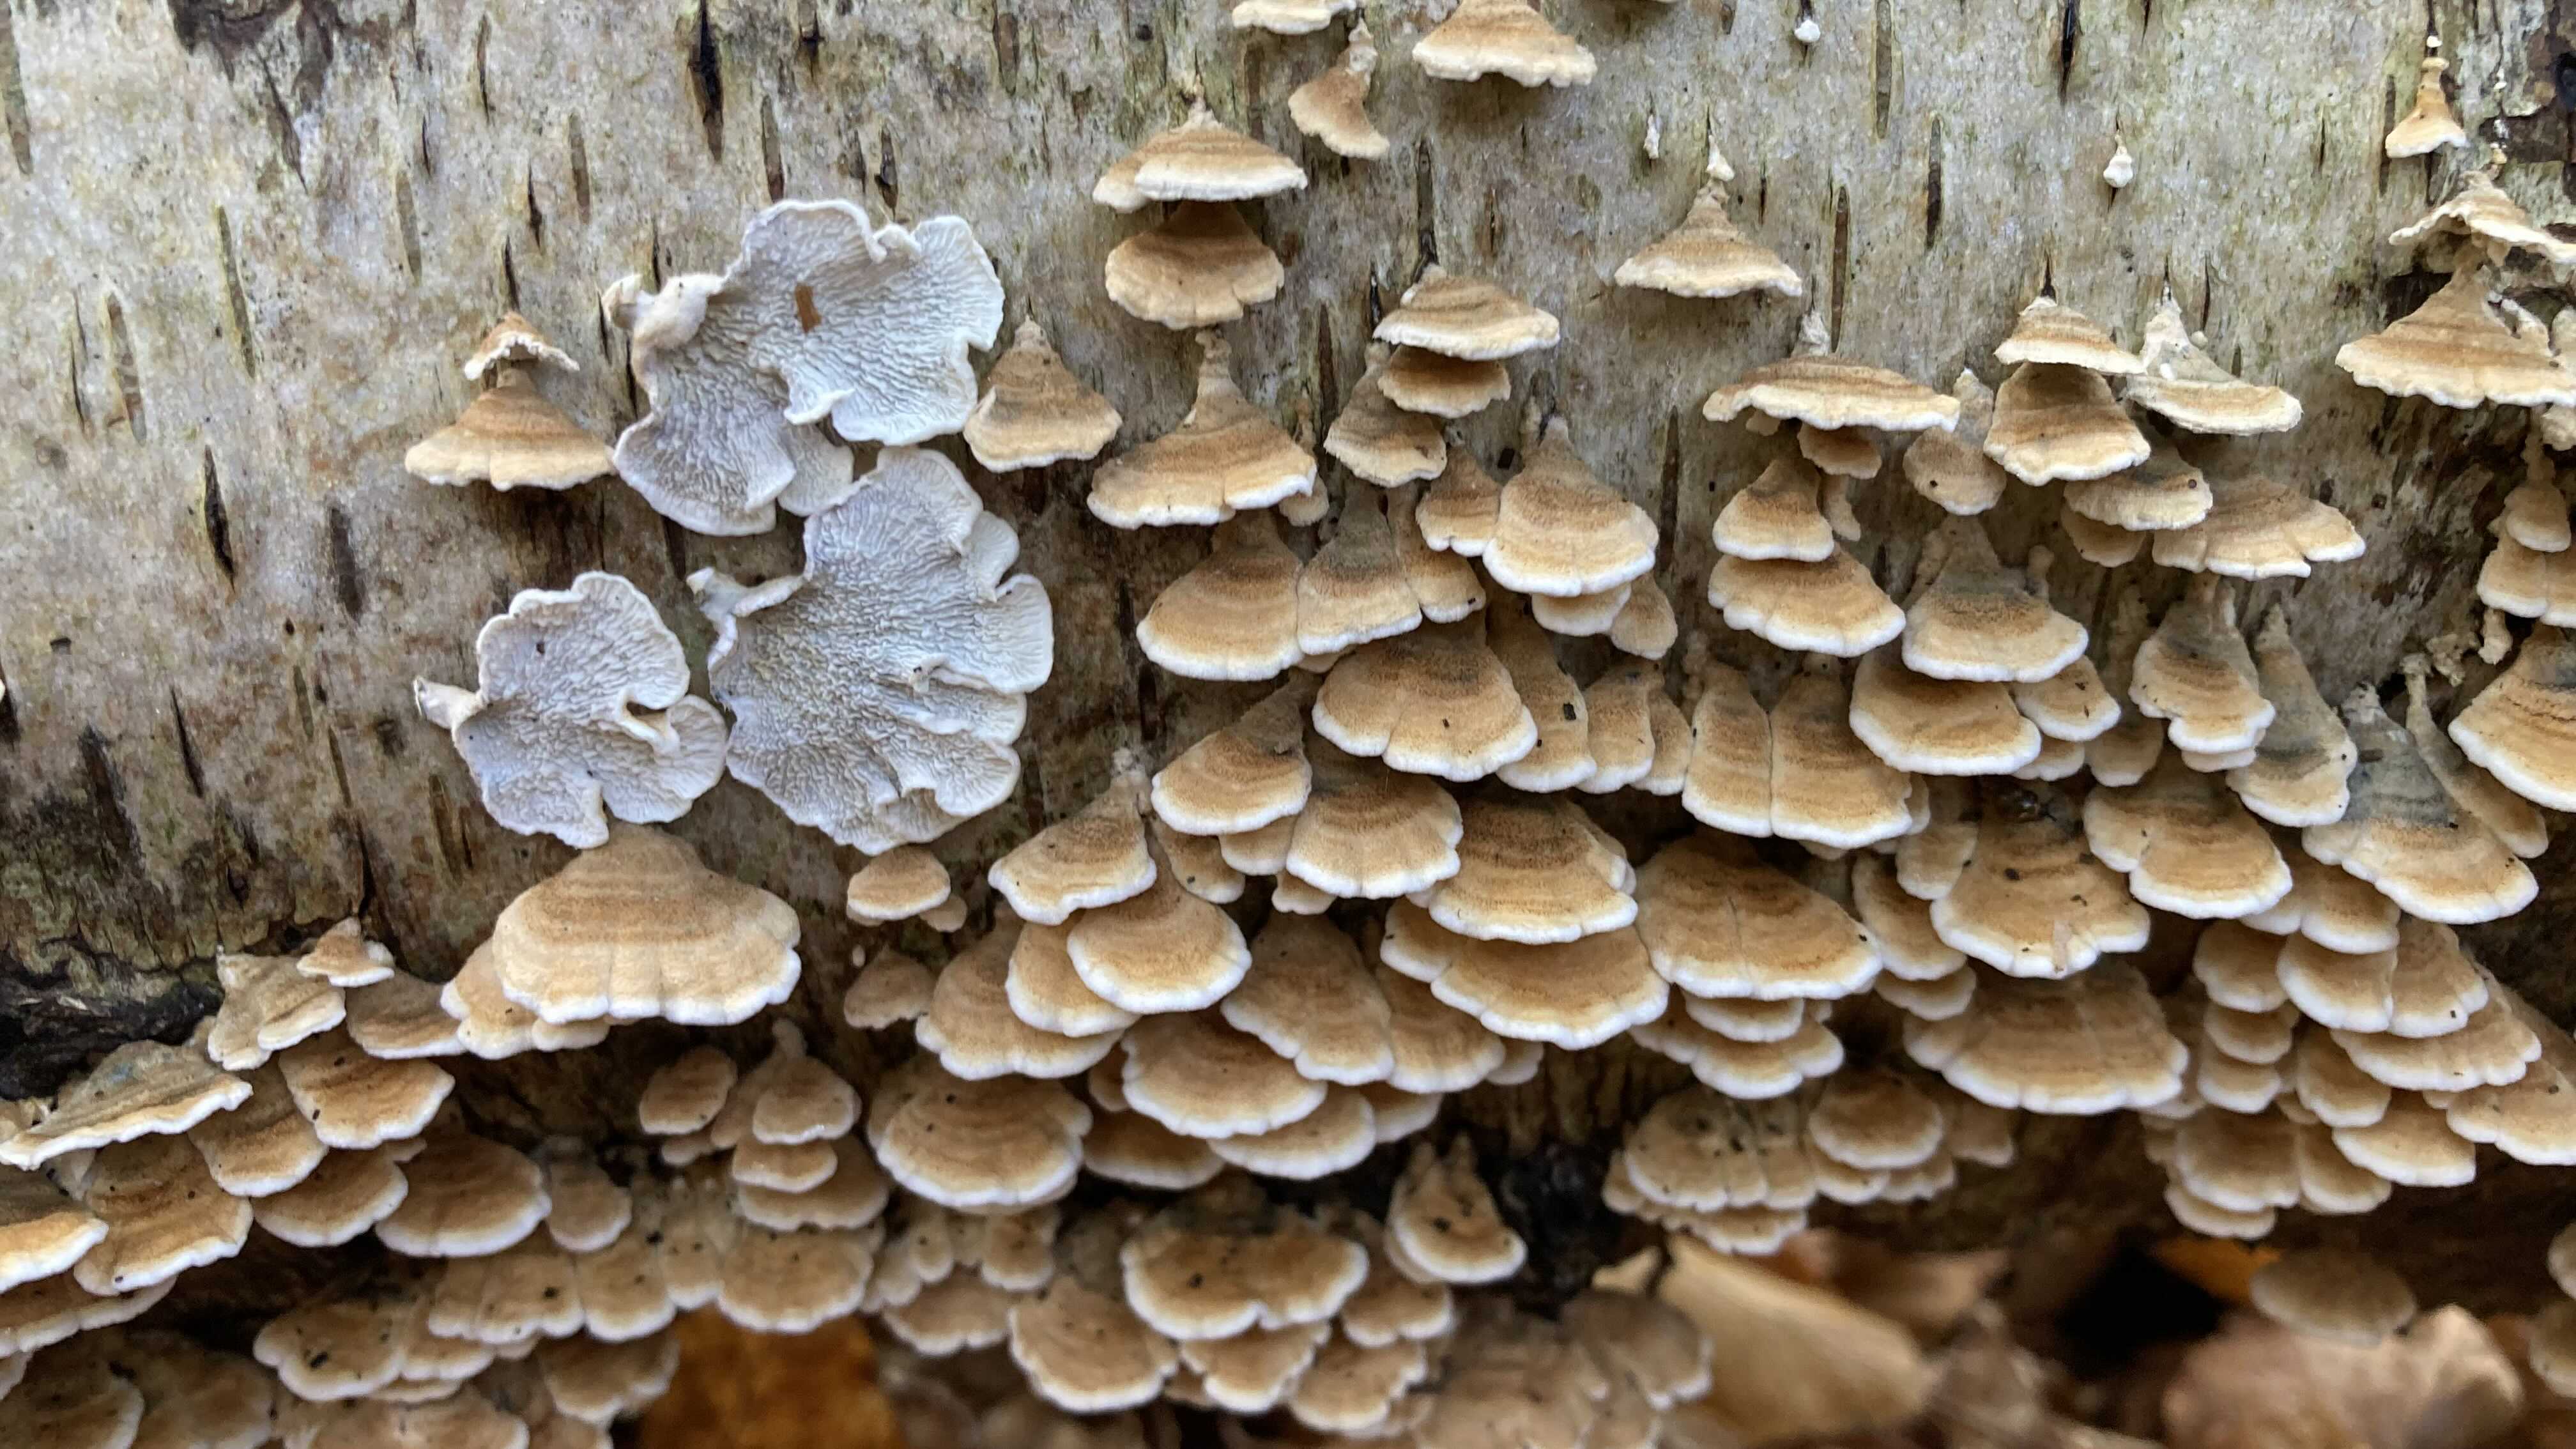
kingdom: Fungi
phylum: Basidiomycota
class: Agaricomycetes
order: Amylocorticiales
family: Amylocorticiaceae
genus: Plicaturopsis
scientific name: Plicaturopsis crispa
